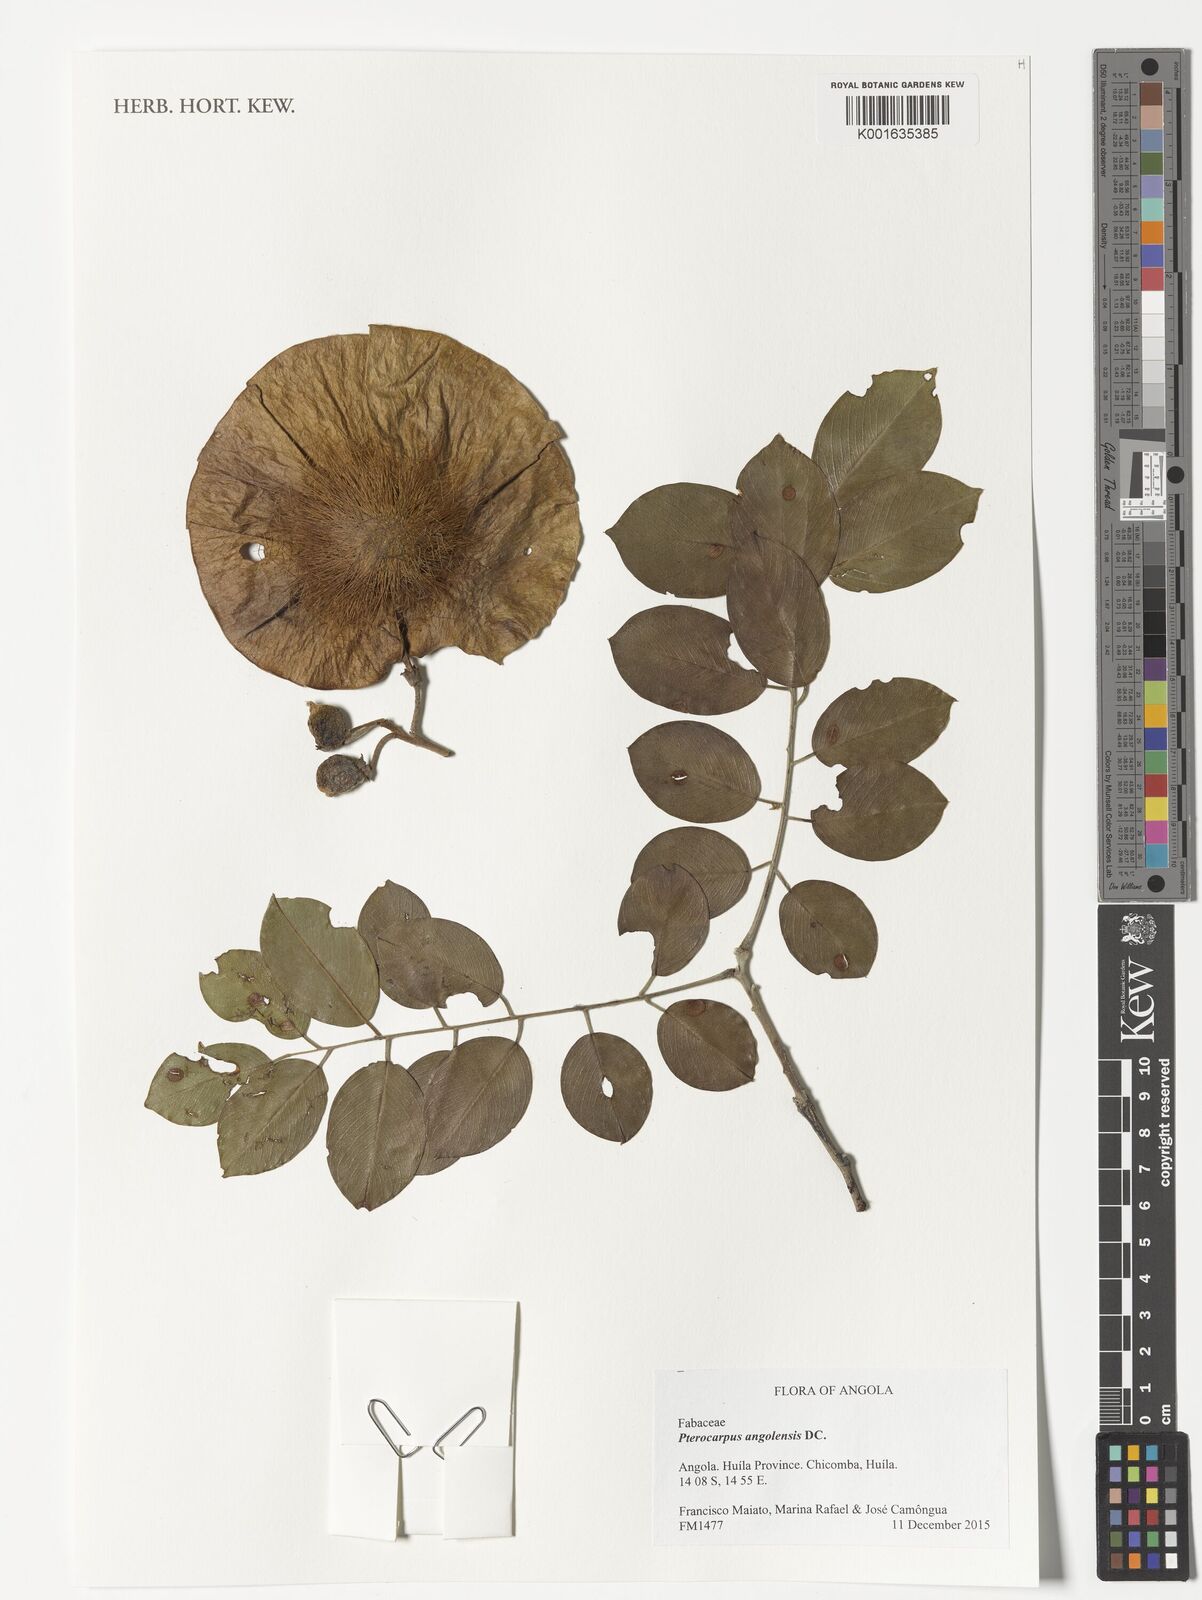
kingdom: Plantae
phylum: Tracheophyta
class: Magnoliopsida
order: Fabales
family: Fabaceae
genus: Pterocarpus
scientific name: Pterocarpus angolensis
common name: Bloodwood tree
